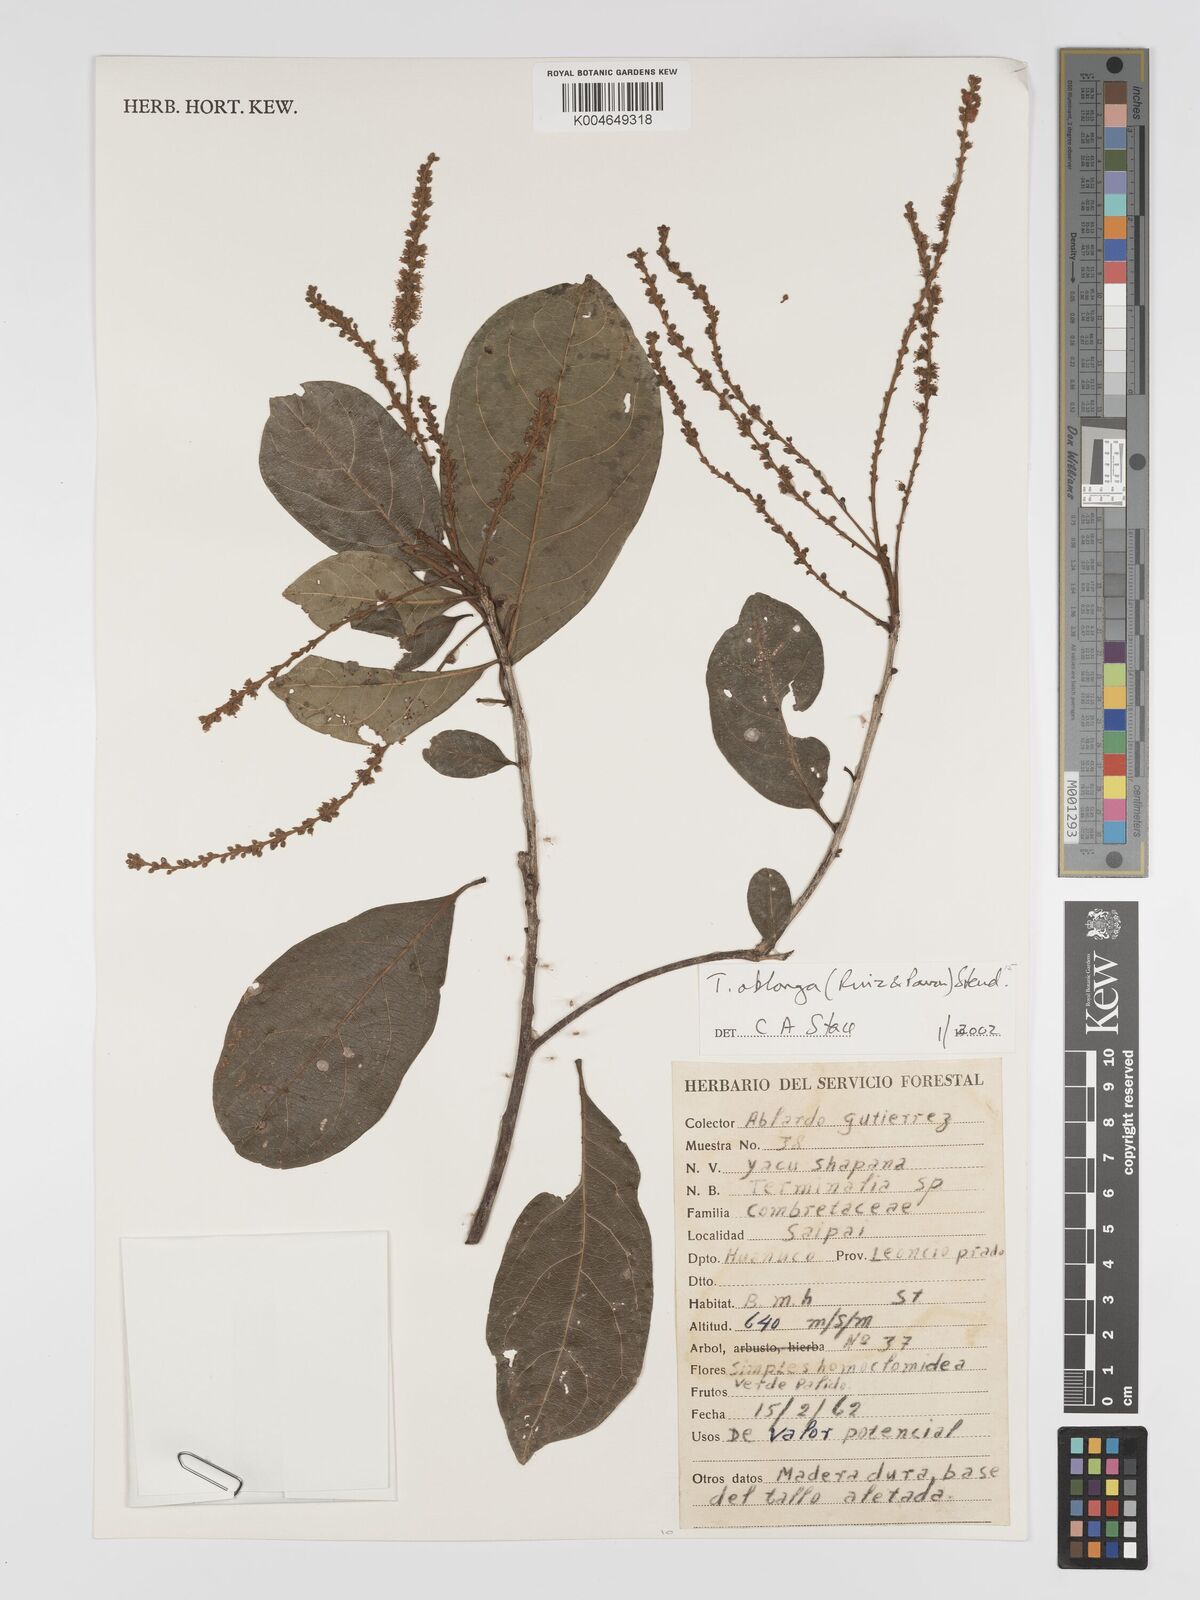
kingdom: Plantae
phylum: Tracheophyta
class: Magnoliopsida
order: Myrtales
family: Combretaceae
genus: Terminalia
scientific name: Terminalia oblonga
